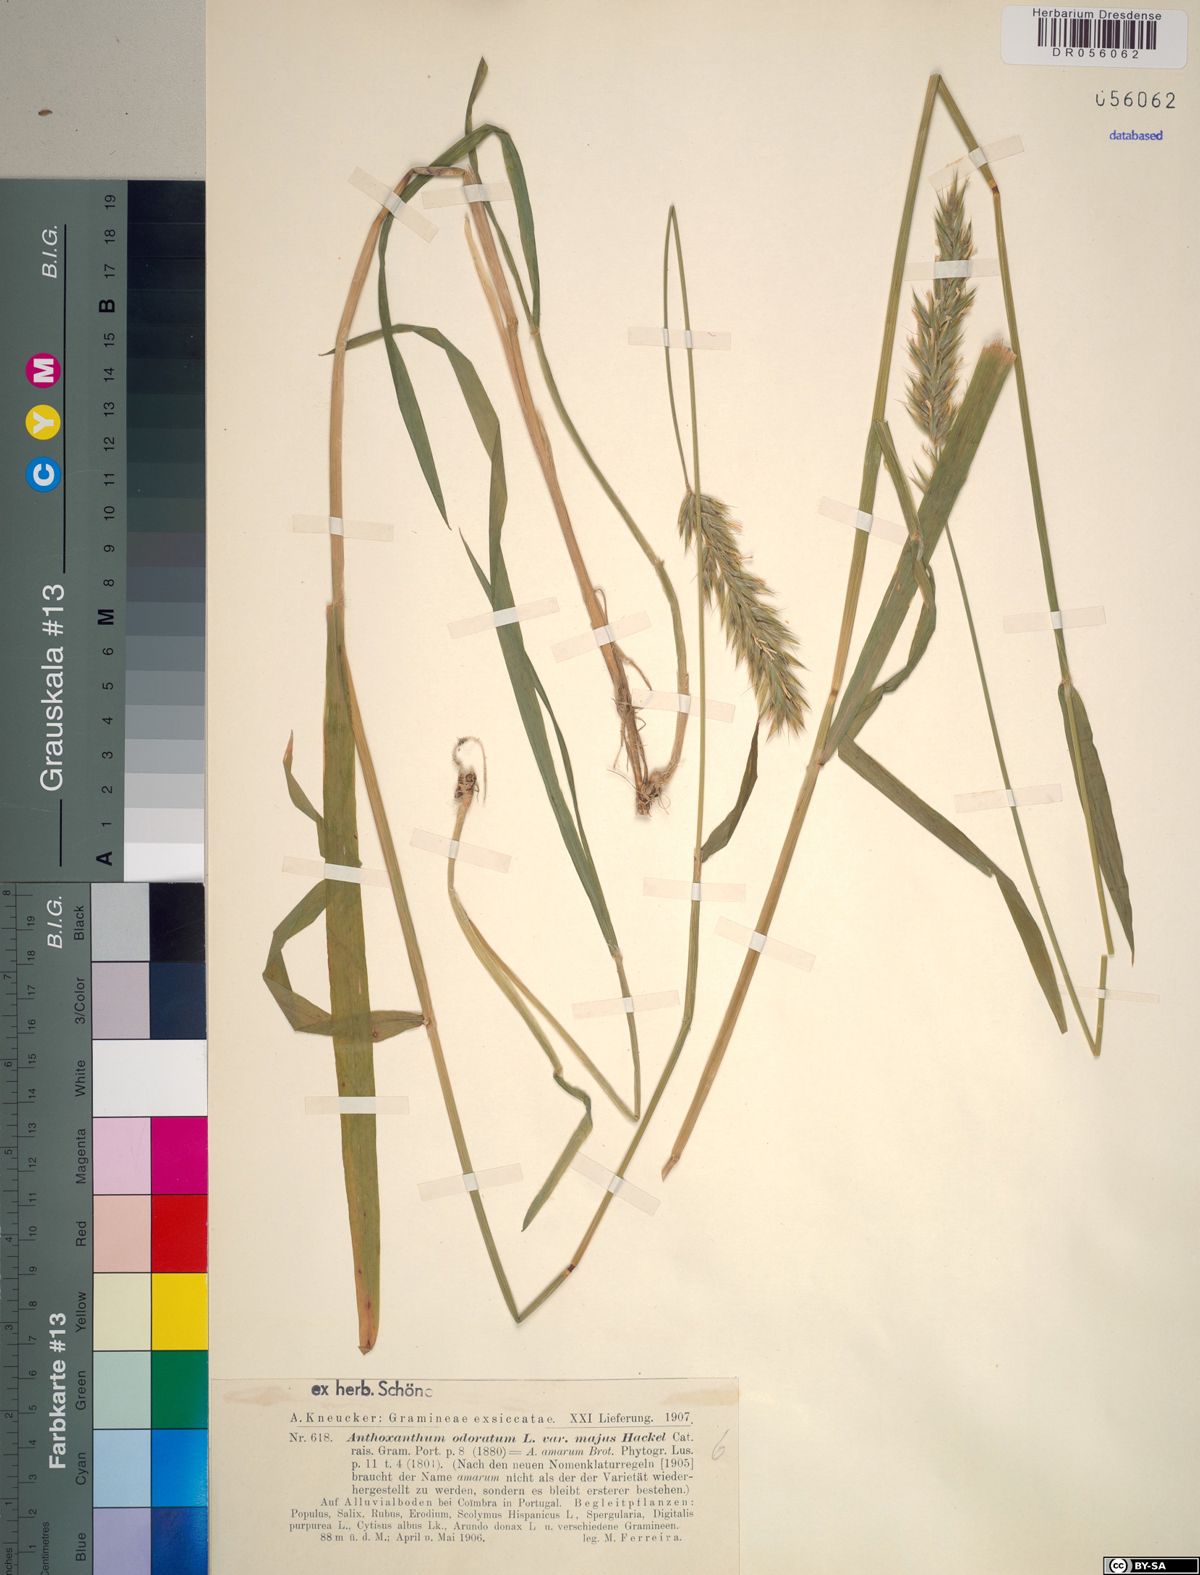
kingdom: Plantae
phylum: Tracheophyta
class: Liliopsida
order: Poales
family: Poaceae
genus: Anthoxanthum
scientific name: Anthoxanthum amarum
